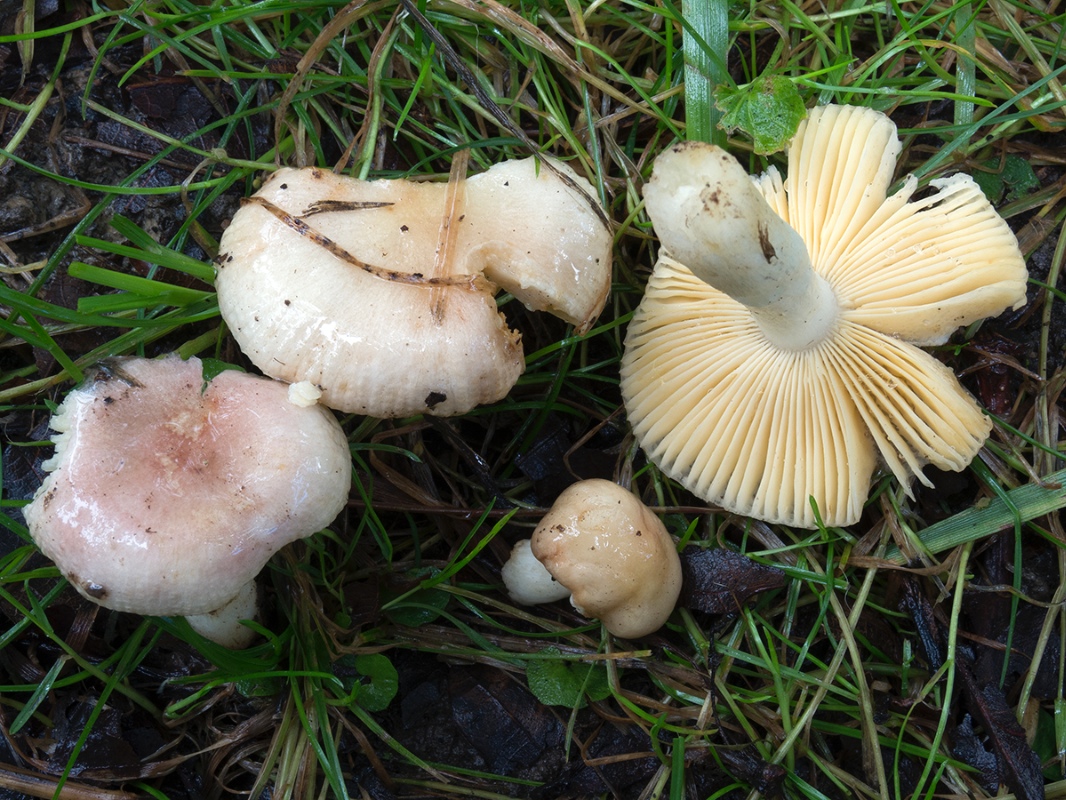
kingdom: Fungi
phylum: Basidiomycota
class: Agaricomycetes
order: Russulales
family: Russulaceae
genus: Russula
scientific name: Russula odorata
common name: duft-skørhat
